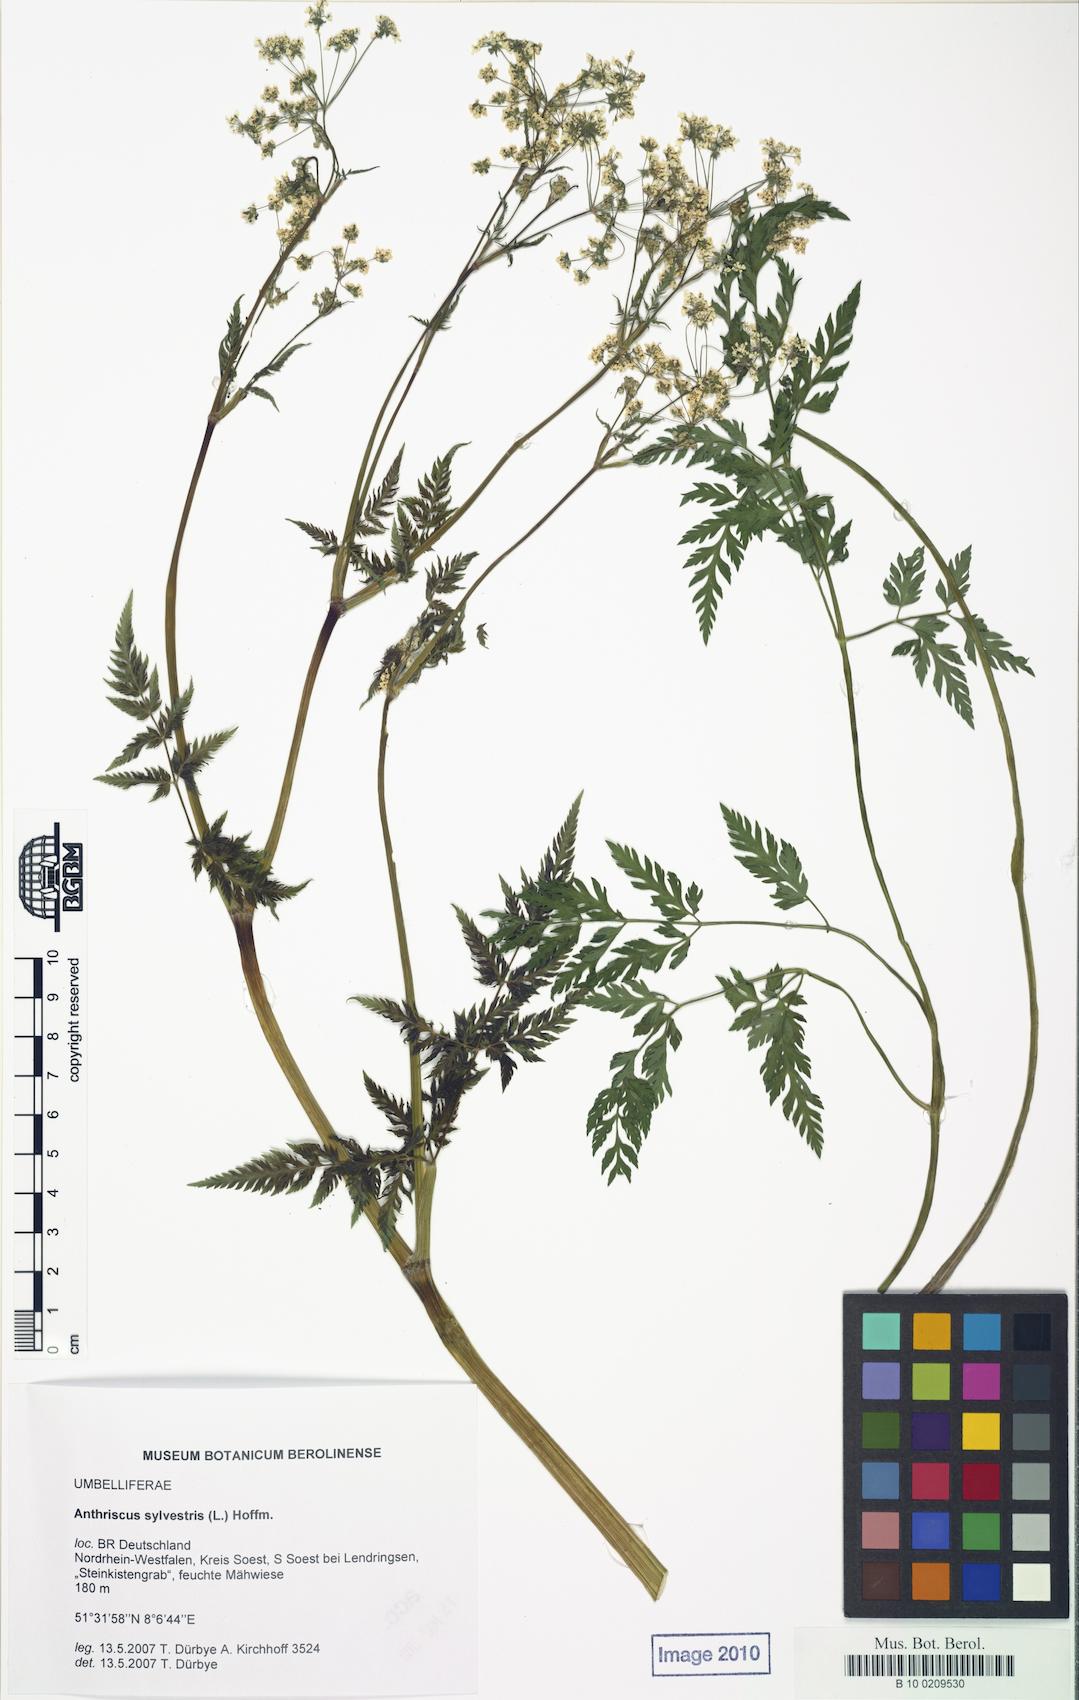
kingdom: Plantae
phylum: Tracheophyta
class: Magnoliopsida
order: Apiales
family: Apiaceae
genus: Anthriscus
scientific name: Anthriscus sylvestris
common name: Cow parsley
